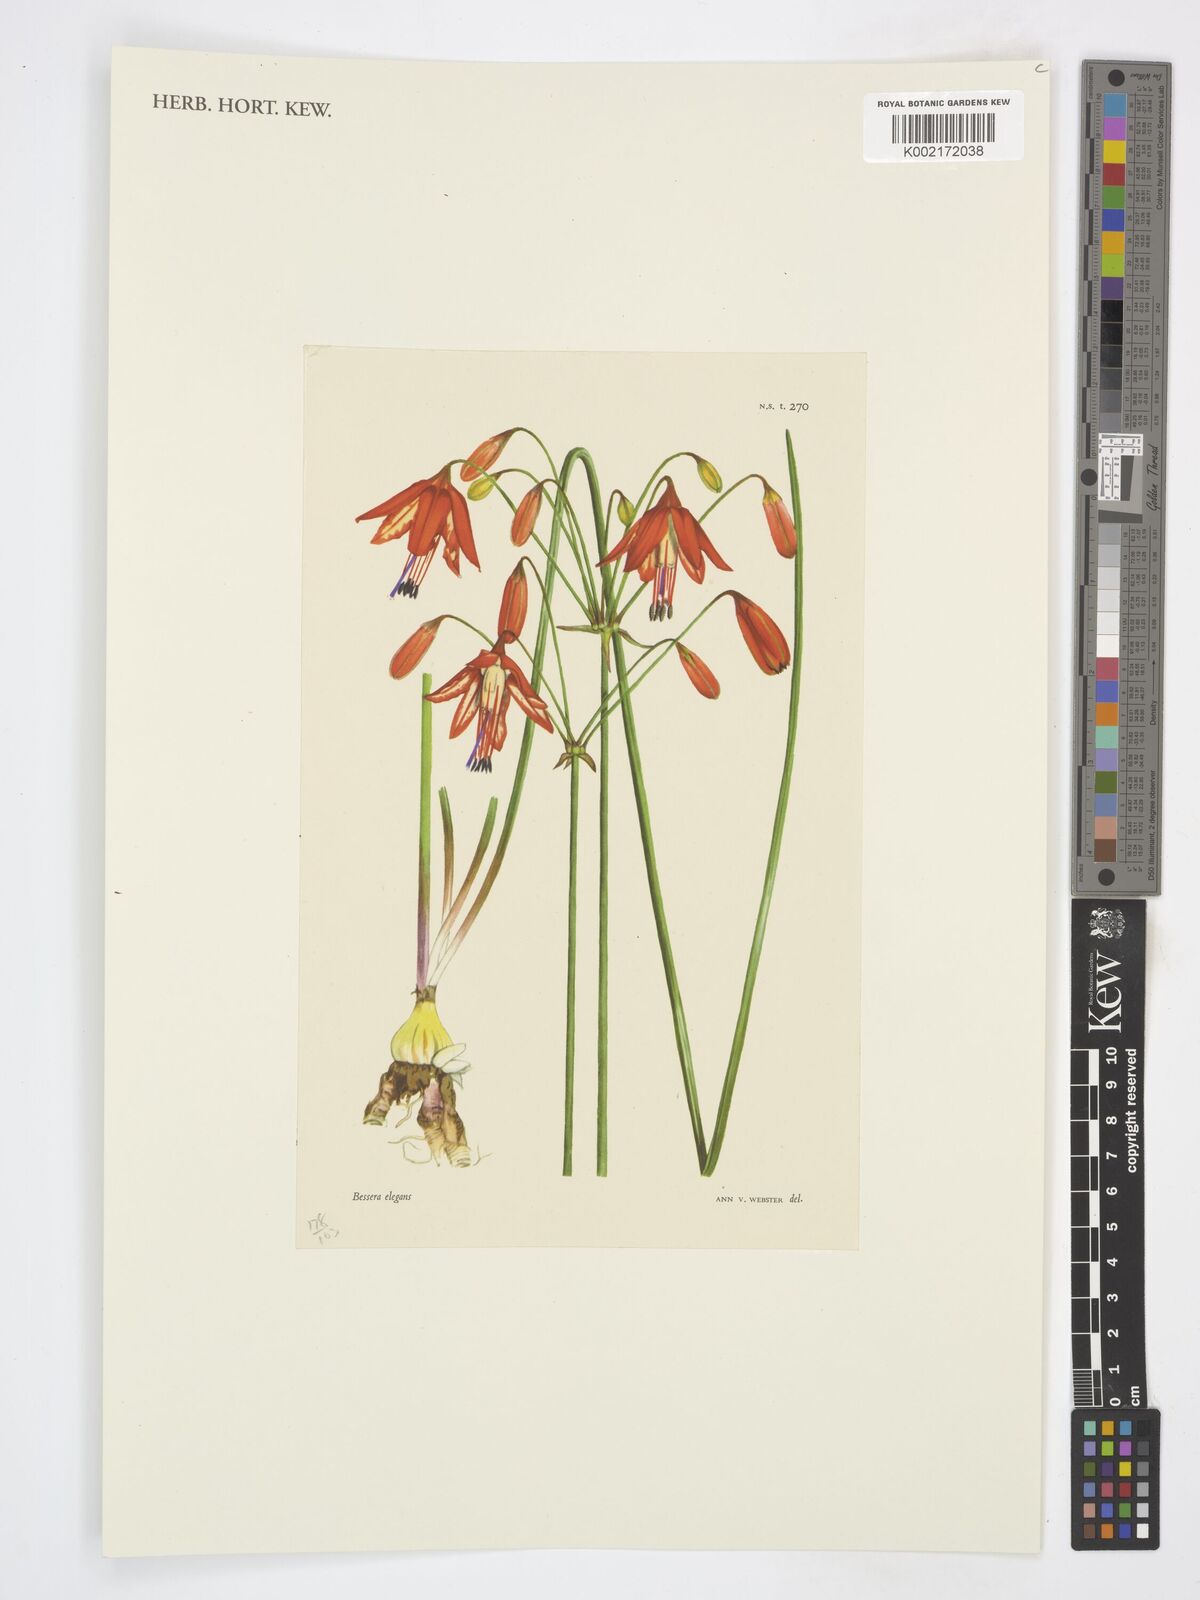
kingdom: Plantae
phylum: Tracheophyta
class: Liliopsida
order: Asparagales
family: Asparagaceae
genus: Bessera
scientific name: Bessera elegans
